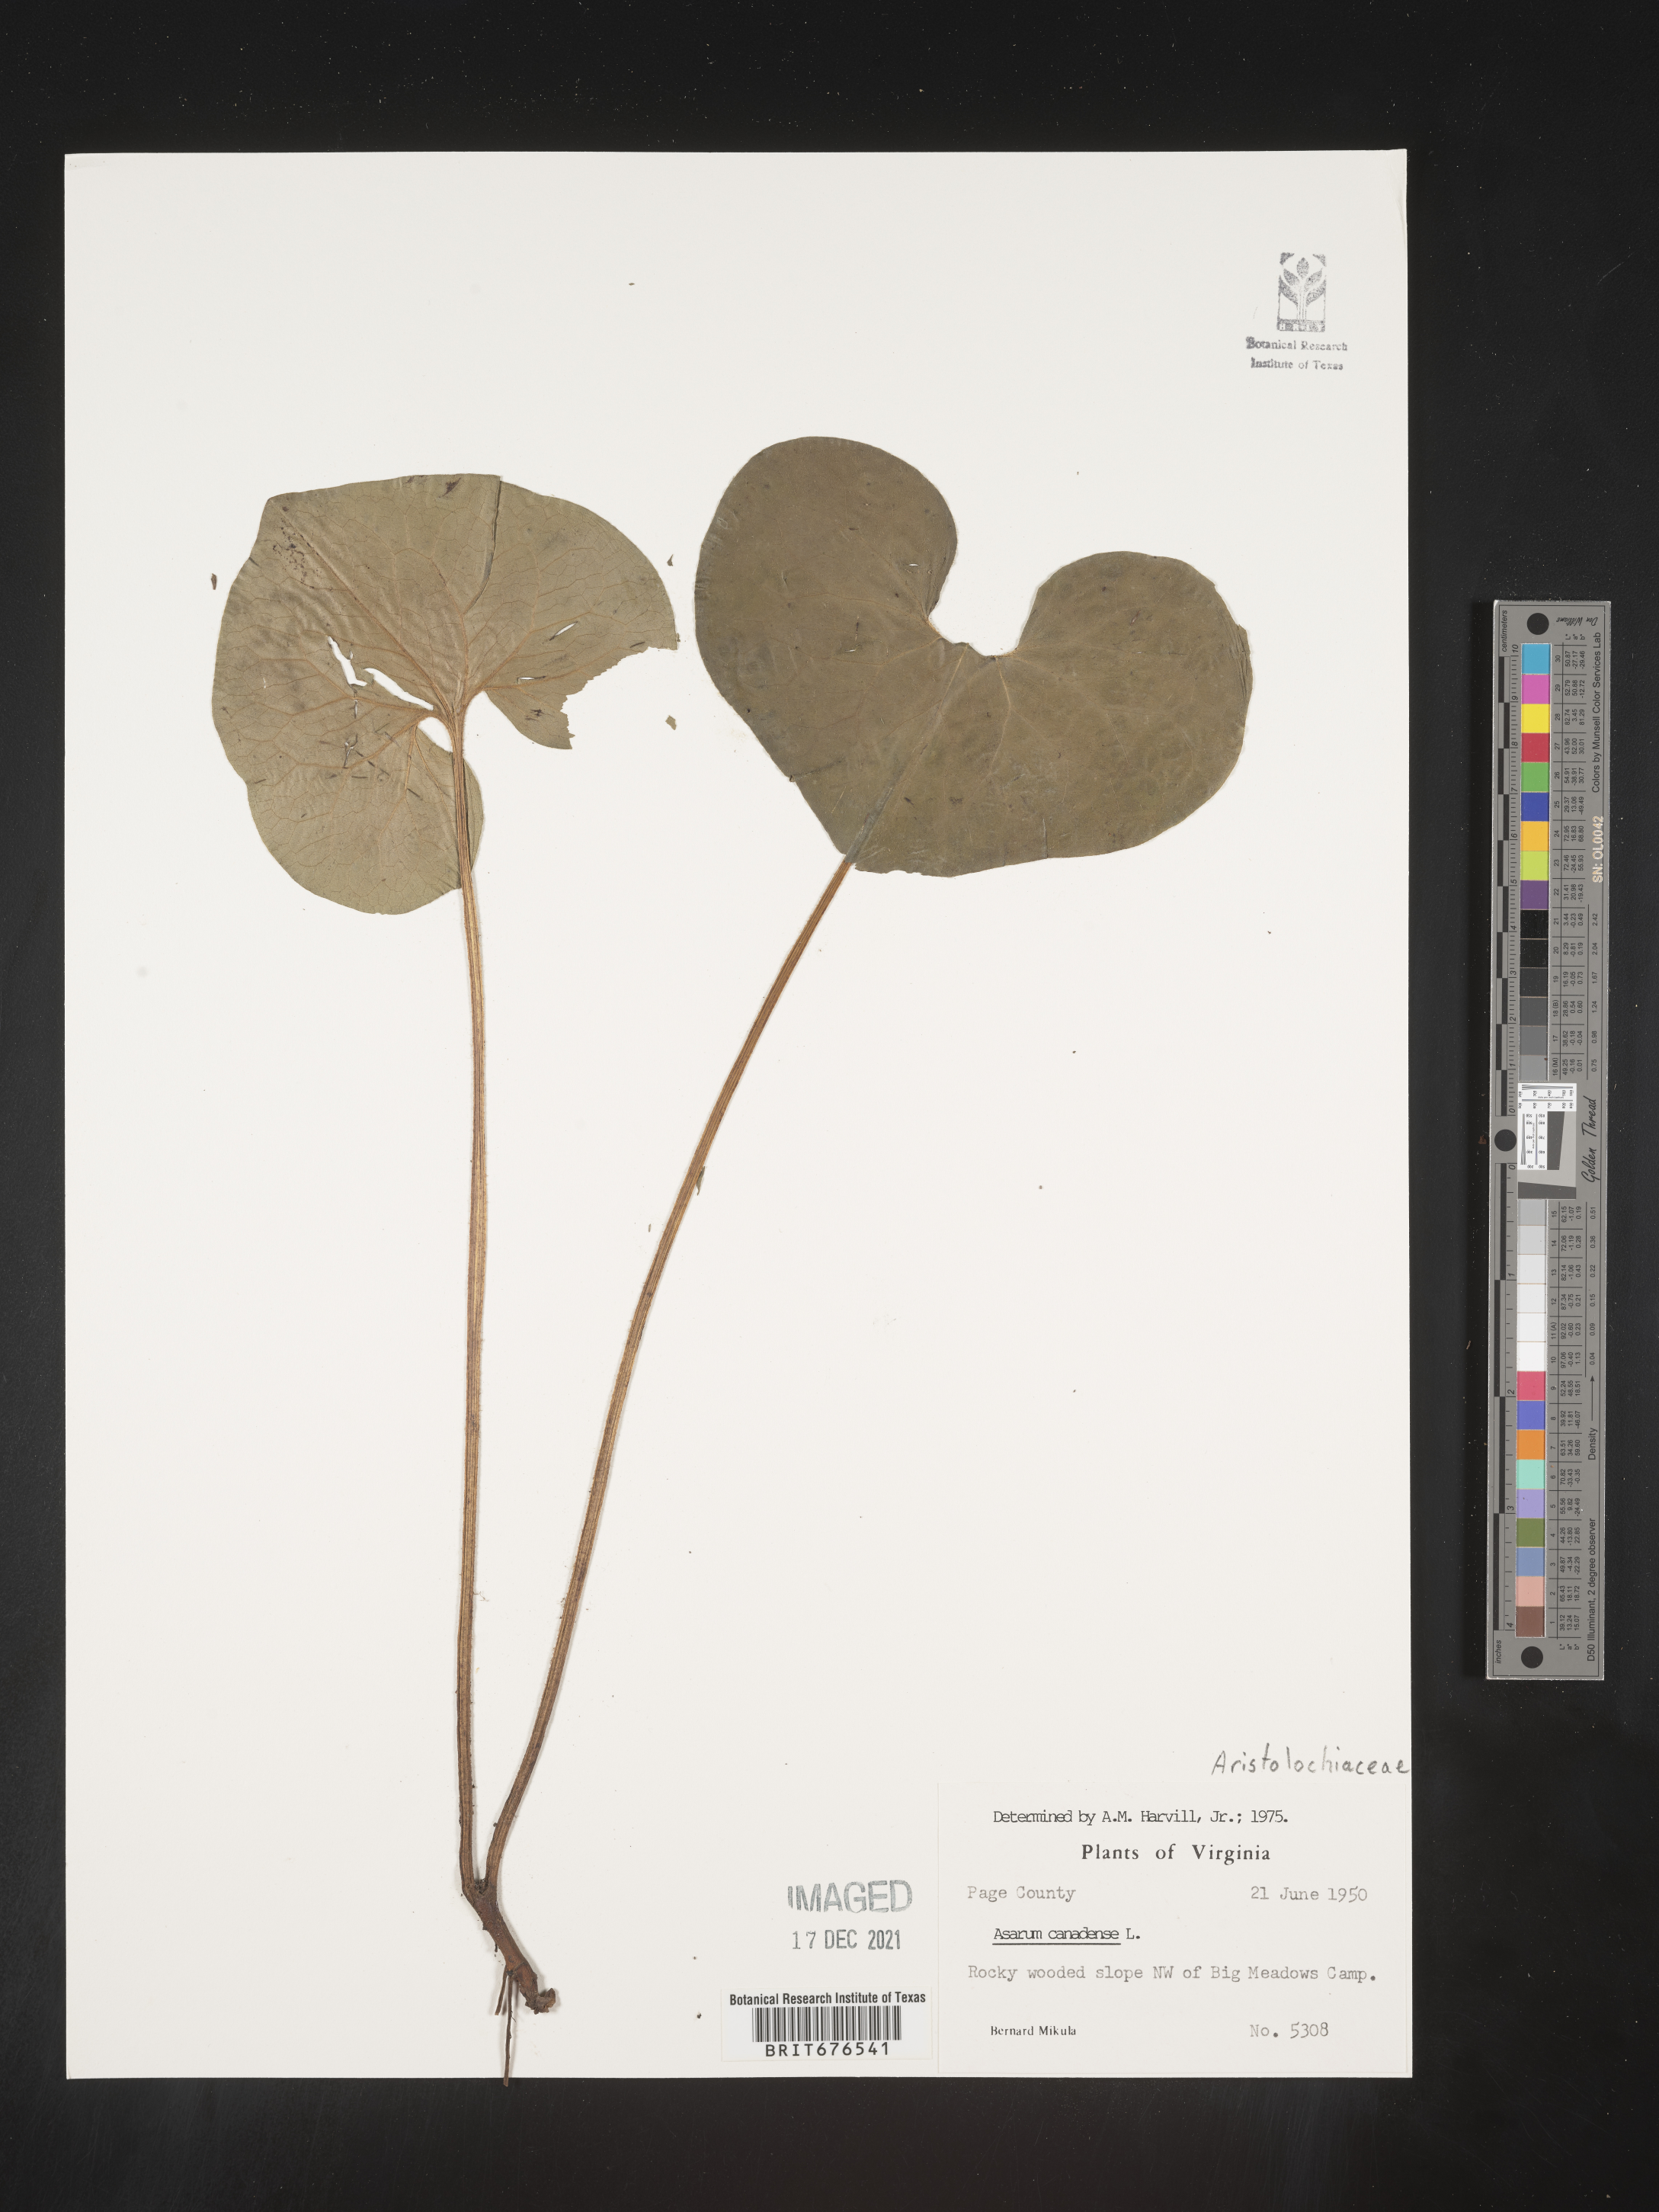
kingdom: Plantae
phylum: Tracheophyta
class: Magnoliopsida
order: Piperales
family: Aristolochiaceae
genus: Asarum
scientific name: Asarum canadense
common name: Wild ginger
